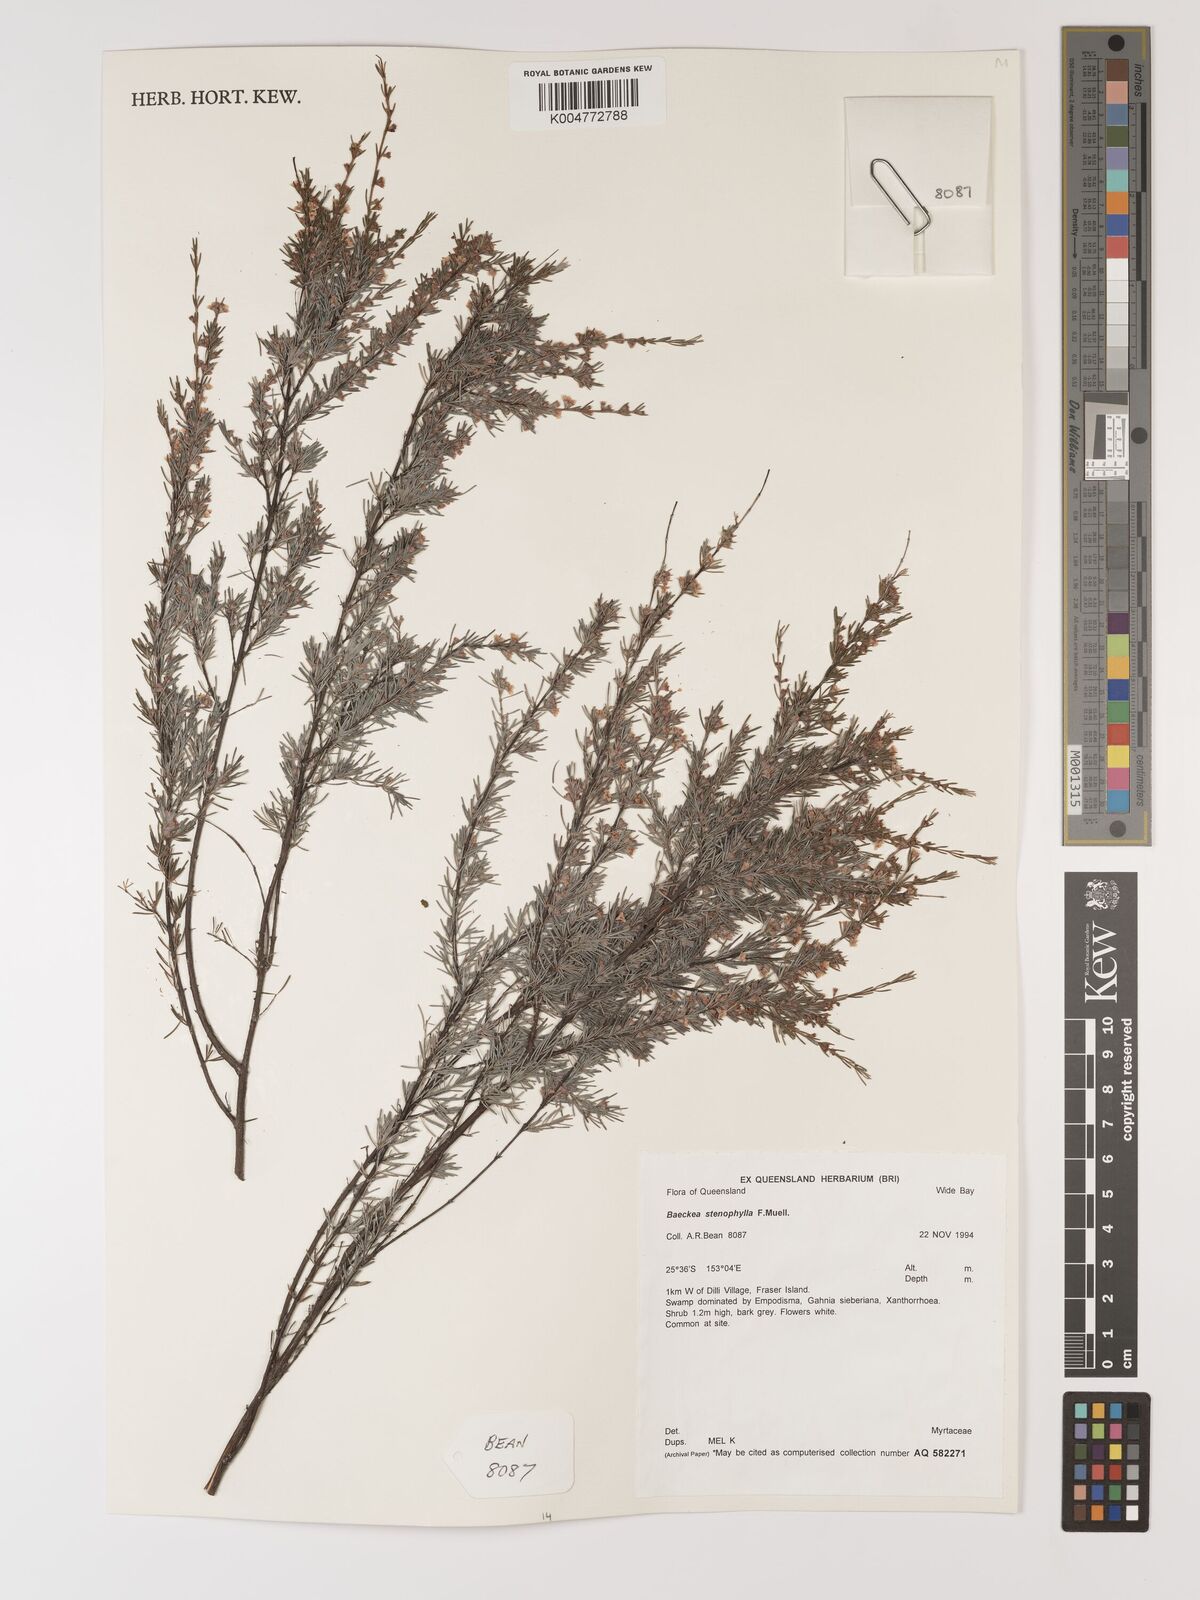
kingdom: Plantae
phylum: Tracheophyta
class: Magnoliopsida
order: Myrtales
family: Myrtaceae
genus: Baeckea
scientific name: Baeckea frutescens
